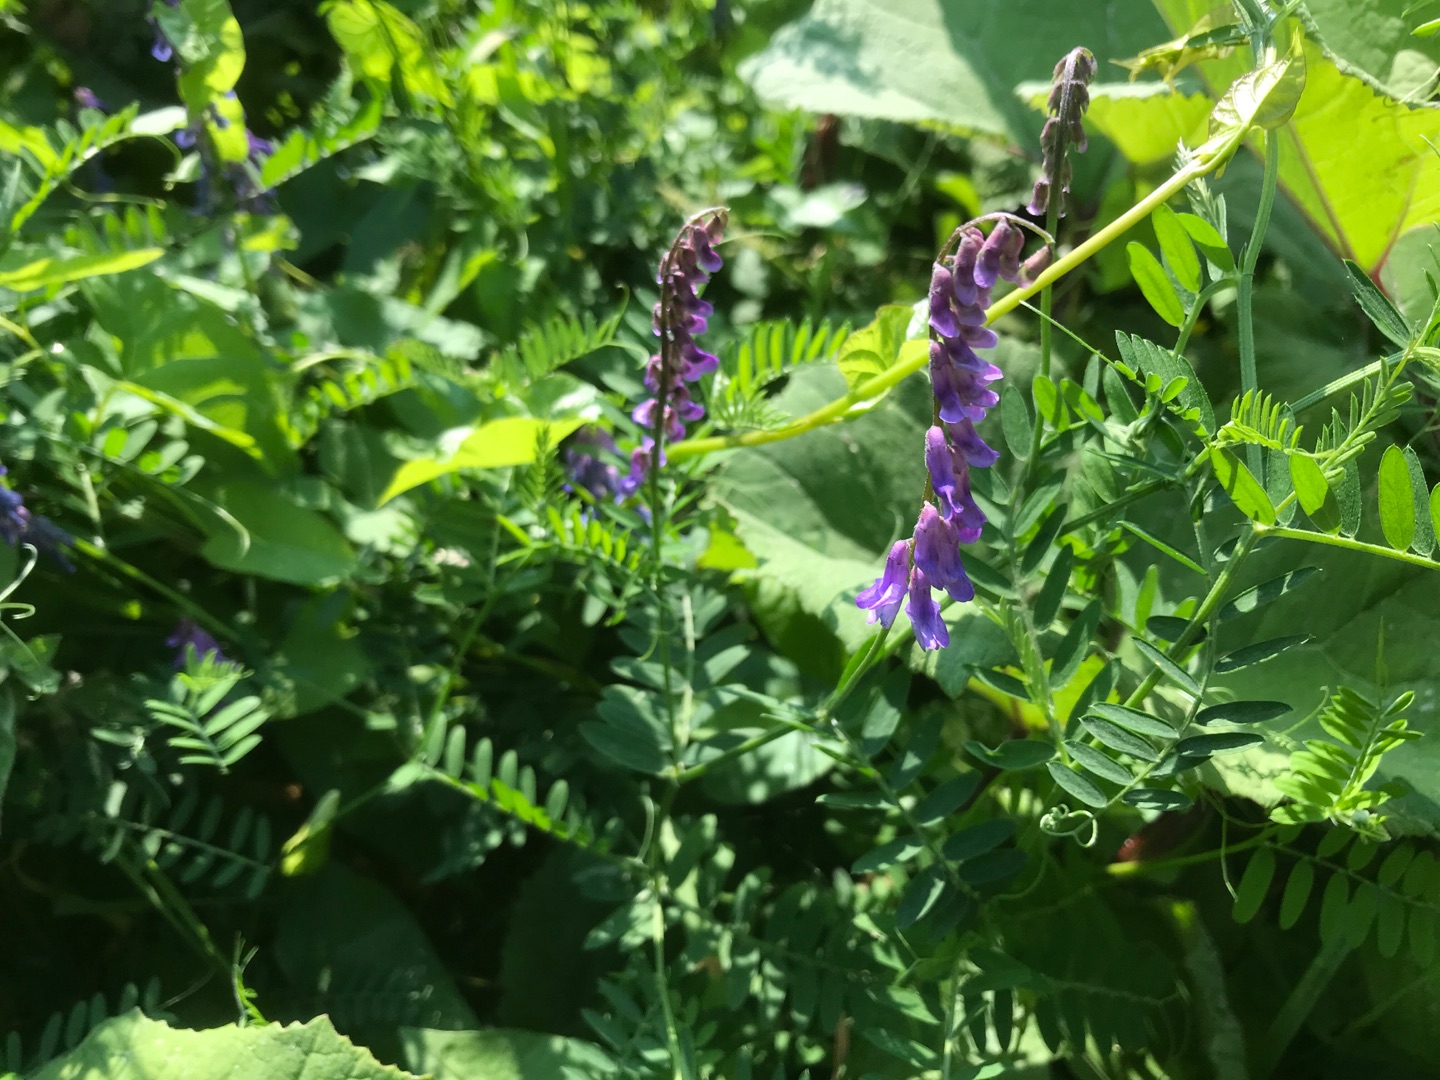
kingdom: Plantae
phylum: Tracheophyta
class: Magnoliopsida
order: Fabales
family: Fabaceae
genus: Vicia
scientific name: Vicia cracca
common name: Muse-vikke
